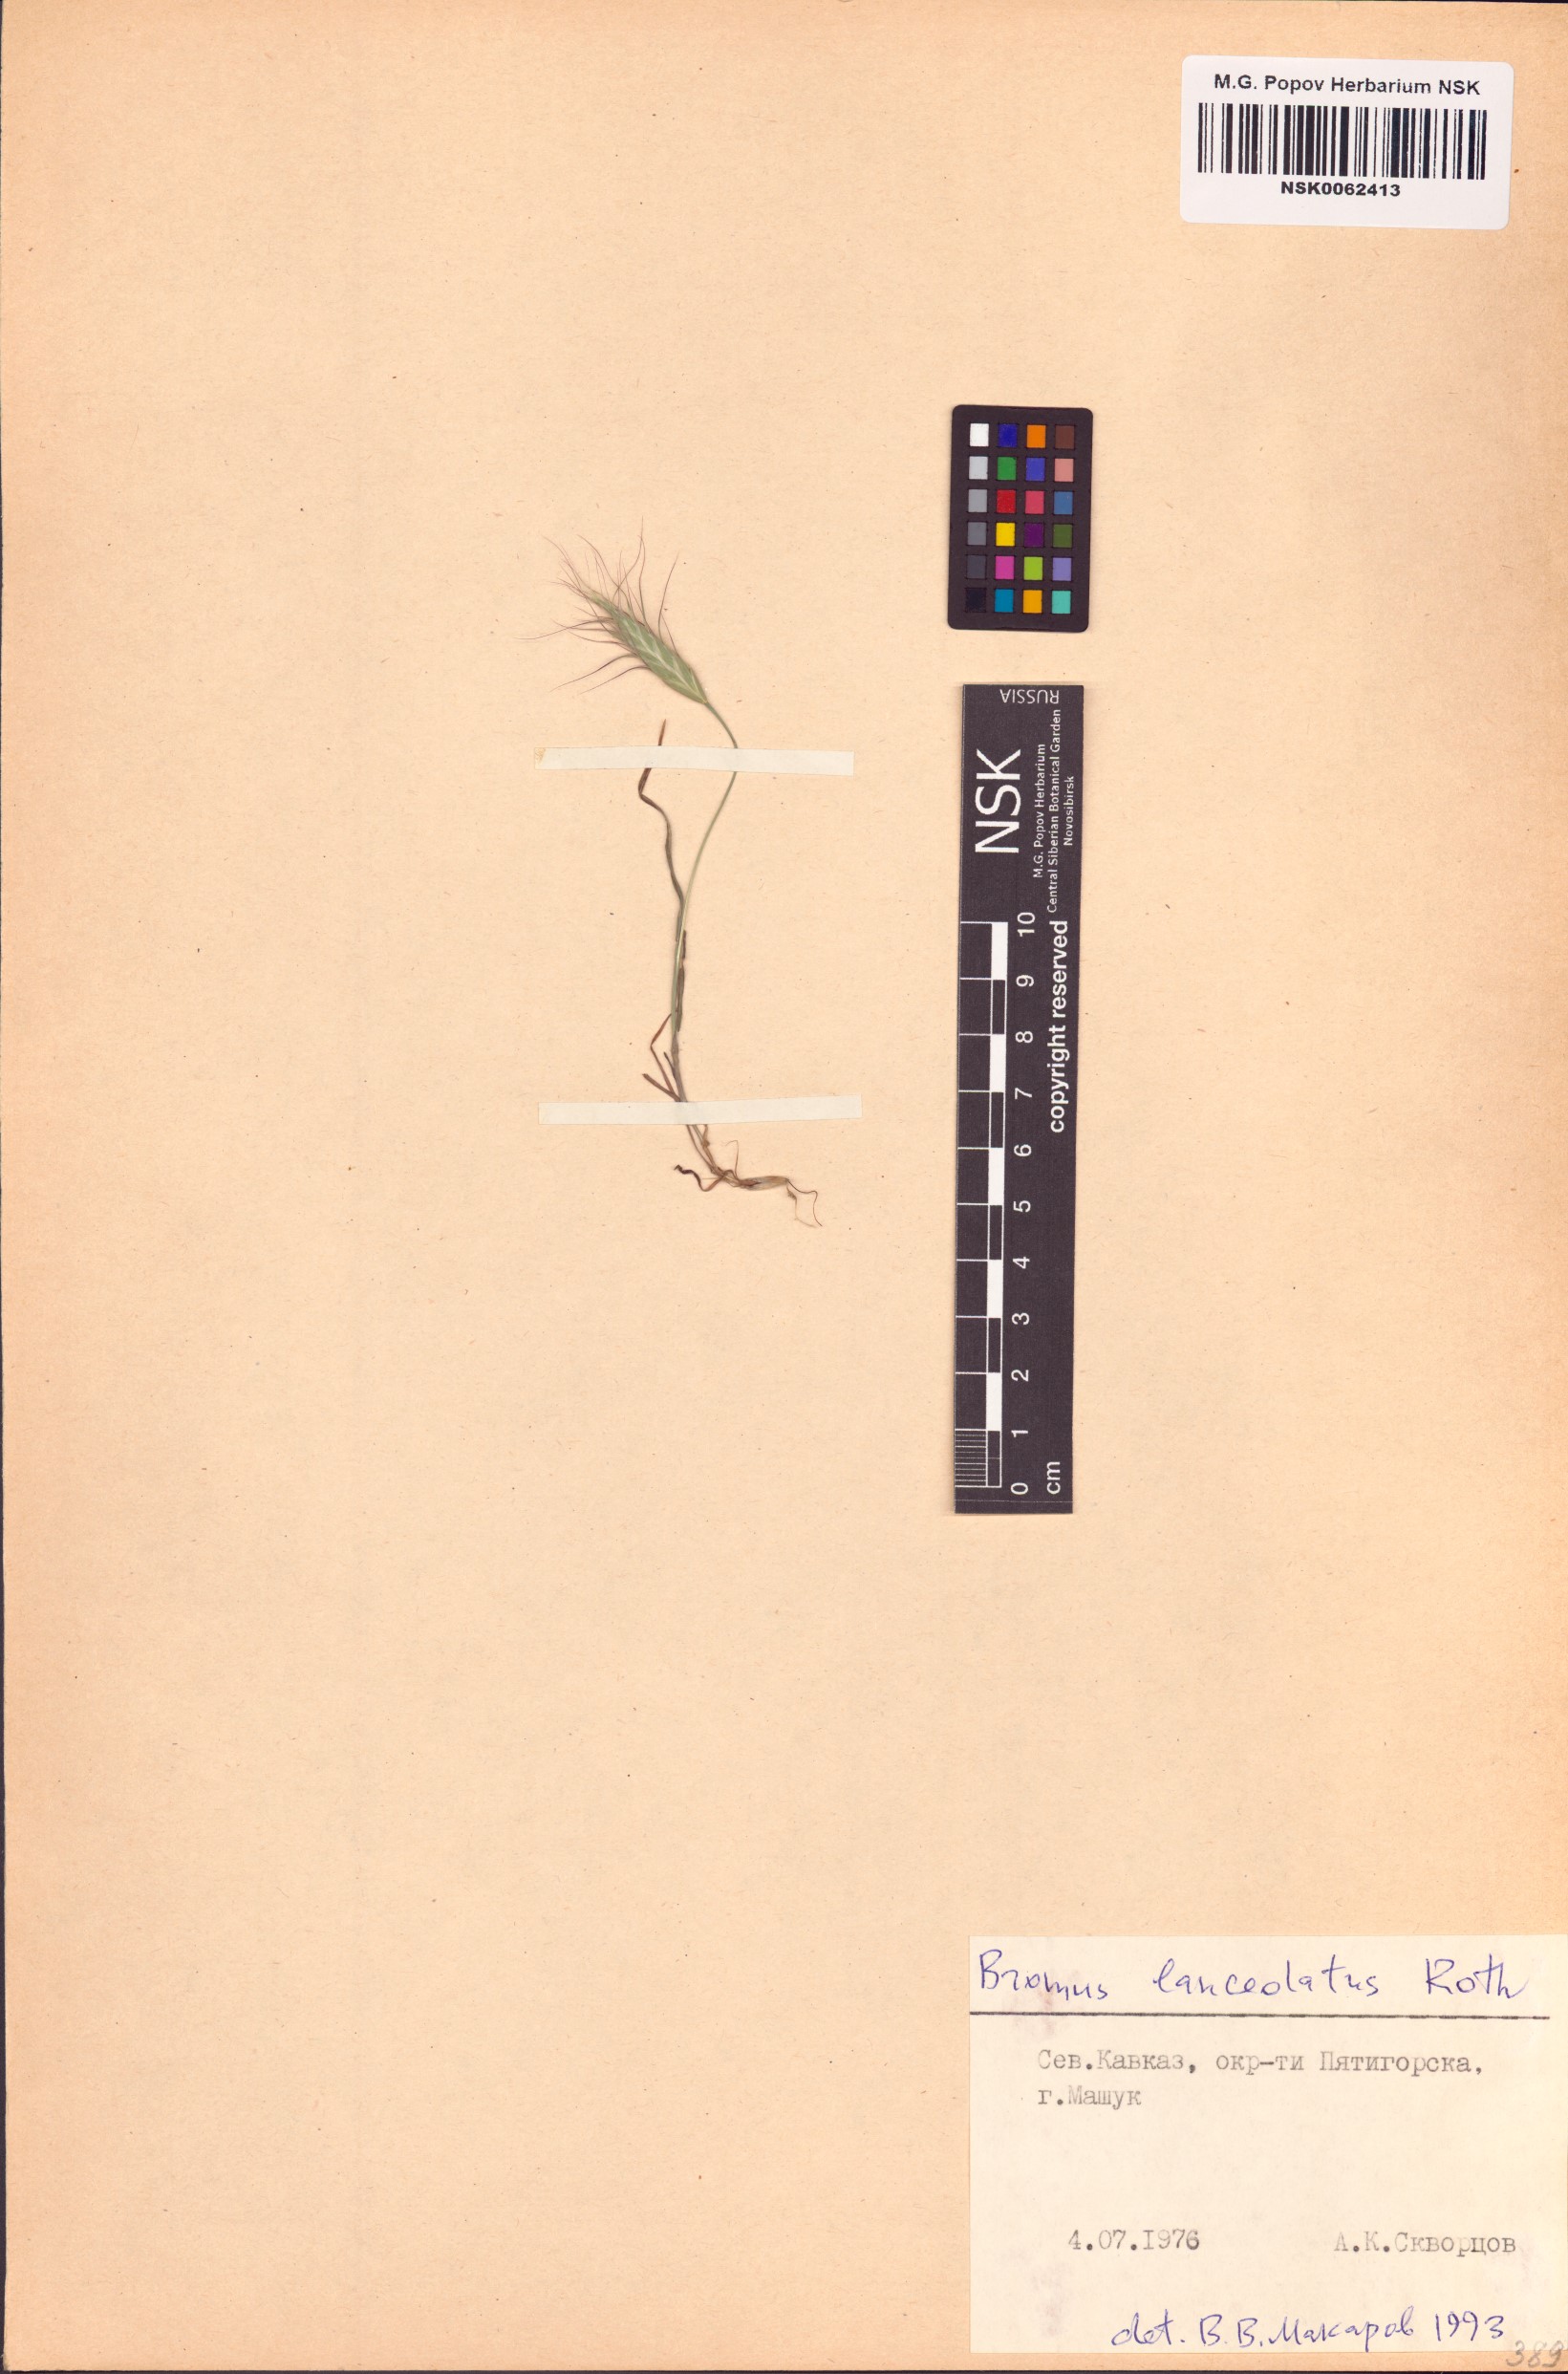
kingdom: Plantae
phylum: Tracheophyta
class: Liliopsida
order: Poales
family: Poaceae
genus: Bromus
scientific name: Bromus lanceolatus
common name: Mediterranean brome
